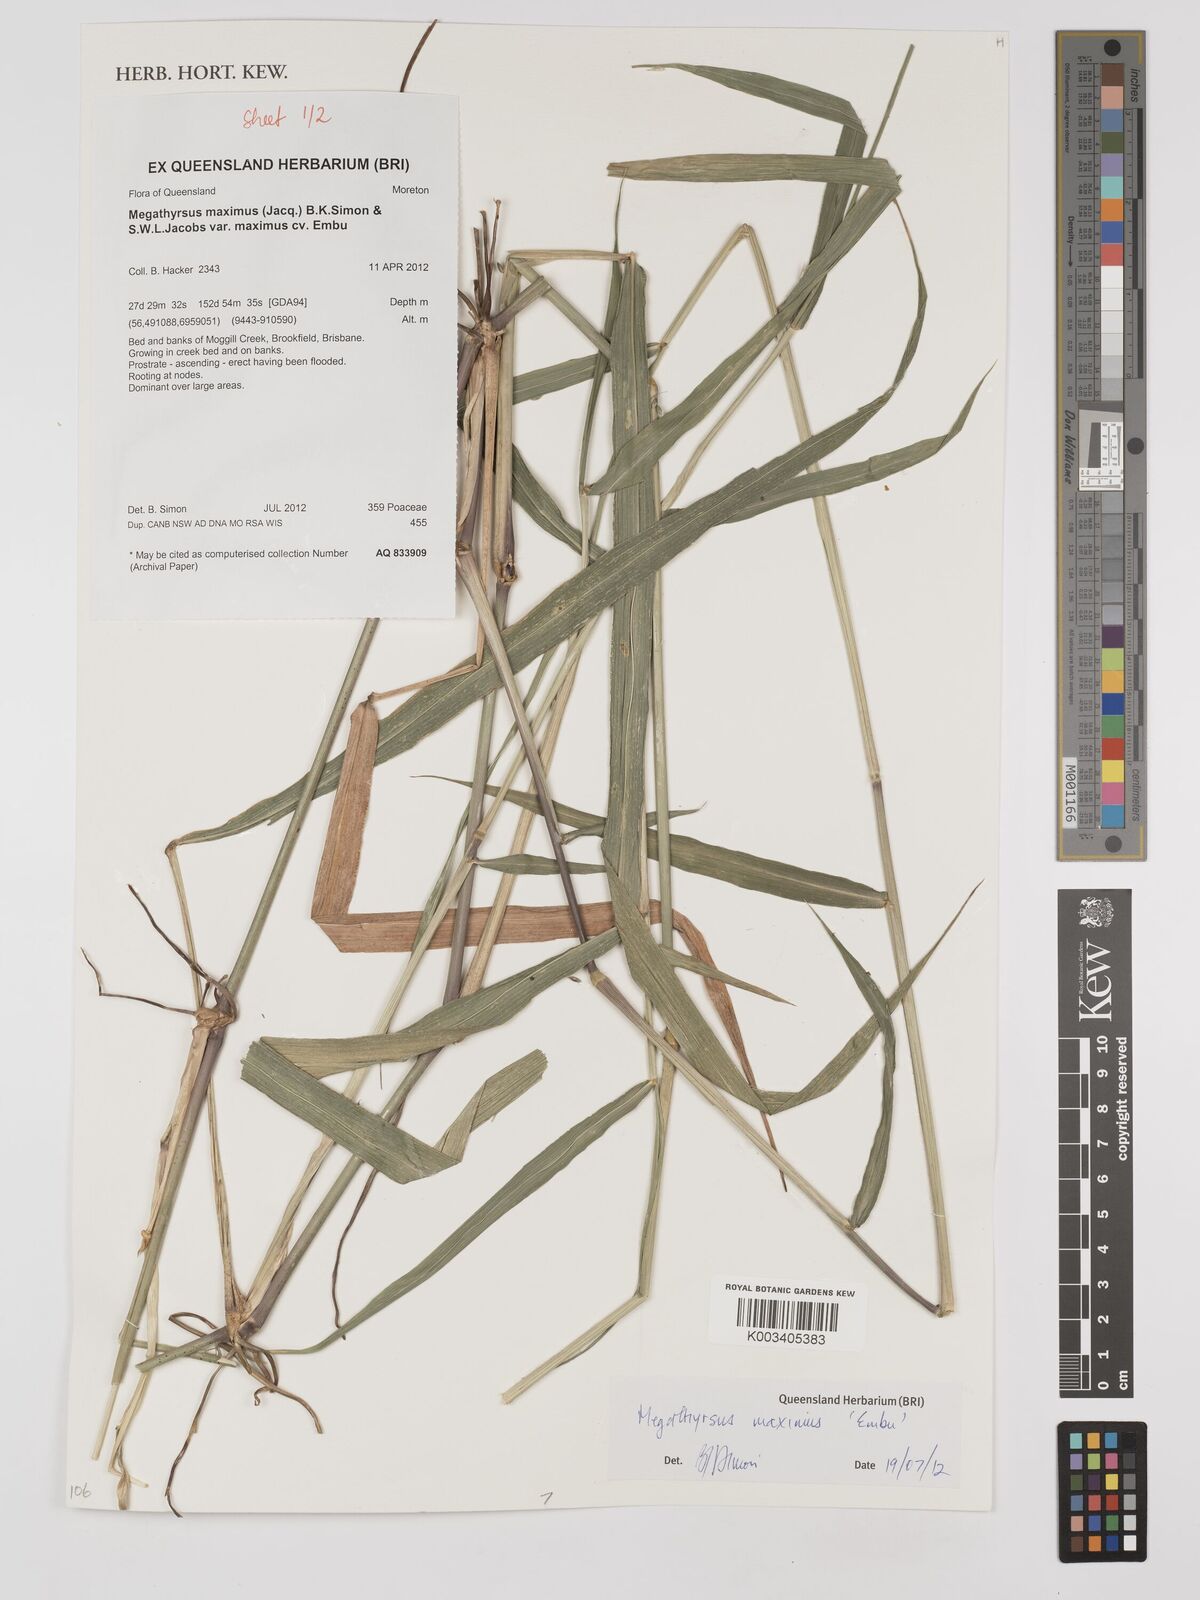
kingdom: Plantae
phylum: Tracheophyta
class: Liliopsida
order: Poales
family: Poaceae
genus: Megathyrsus
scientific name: Megathyrsus maximus
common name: Guineagrass
